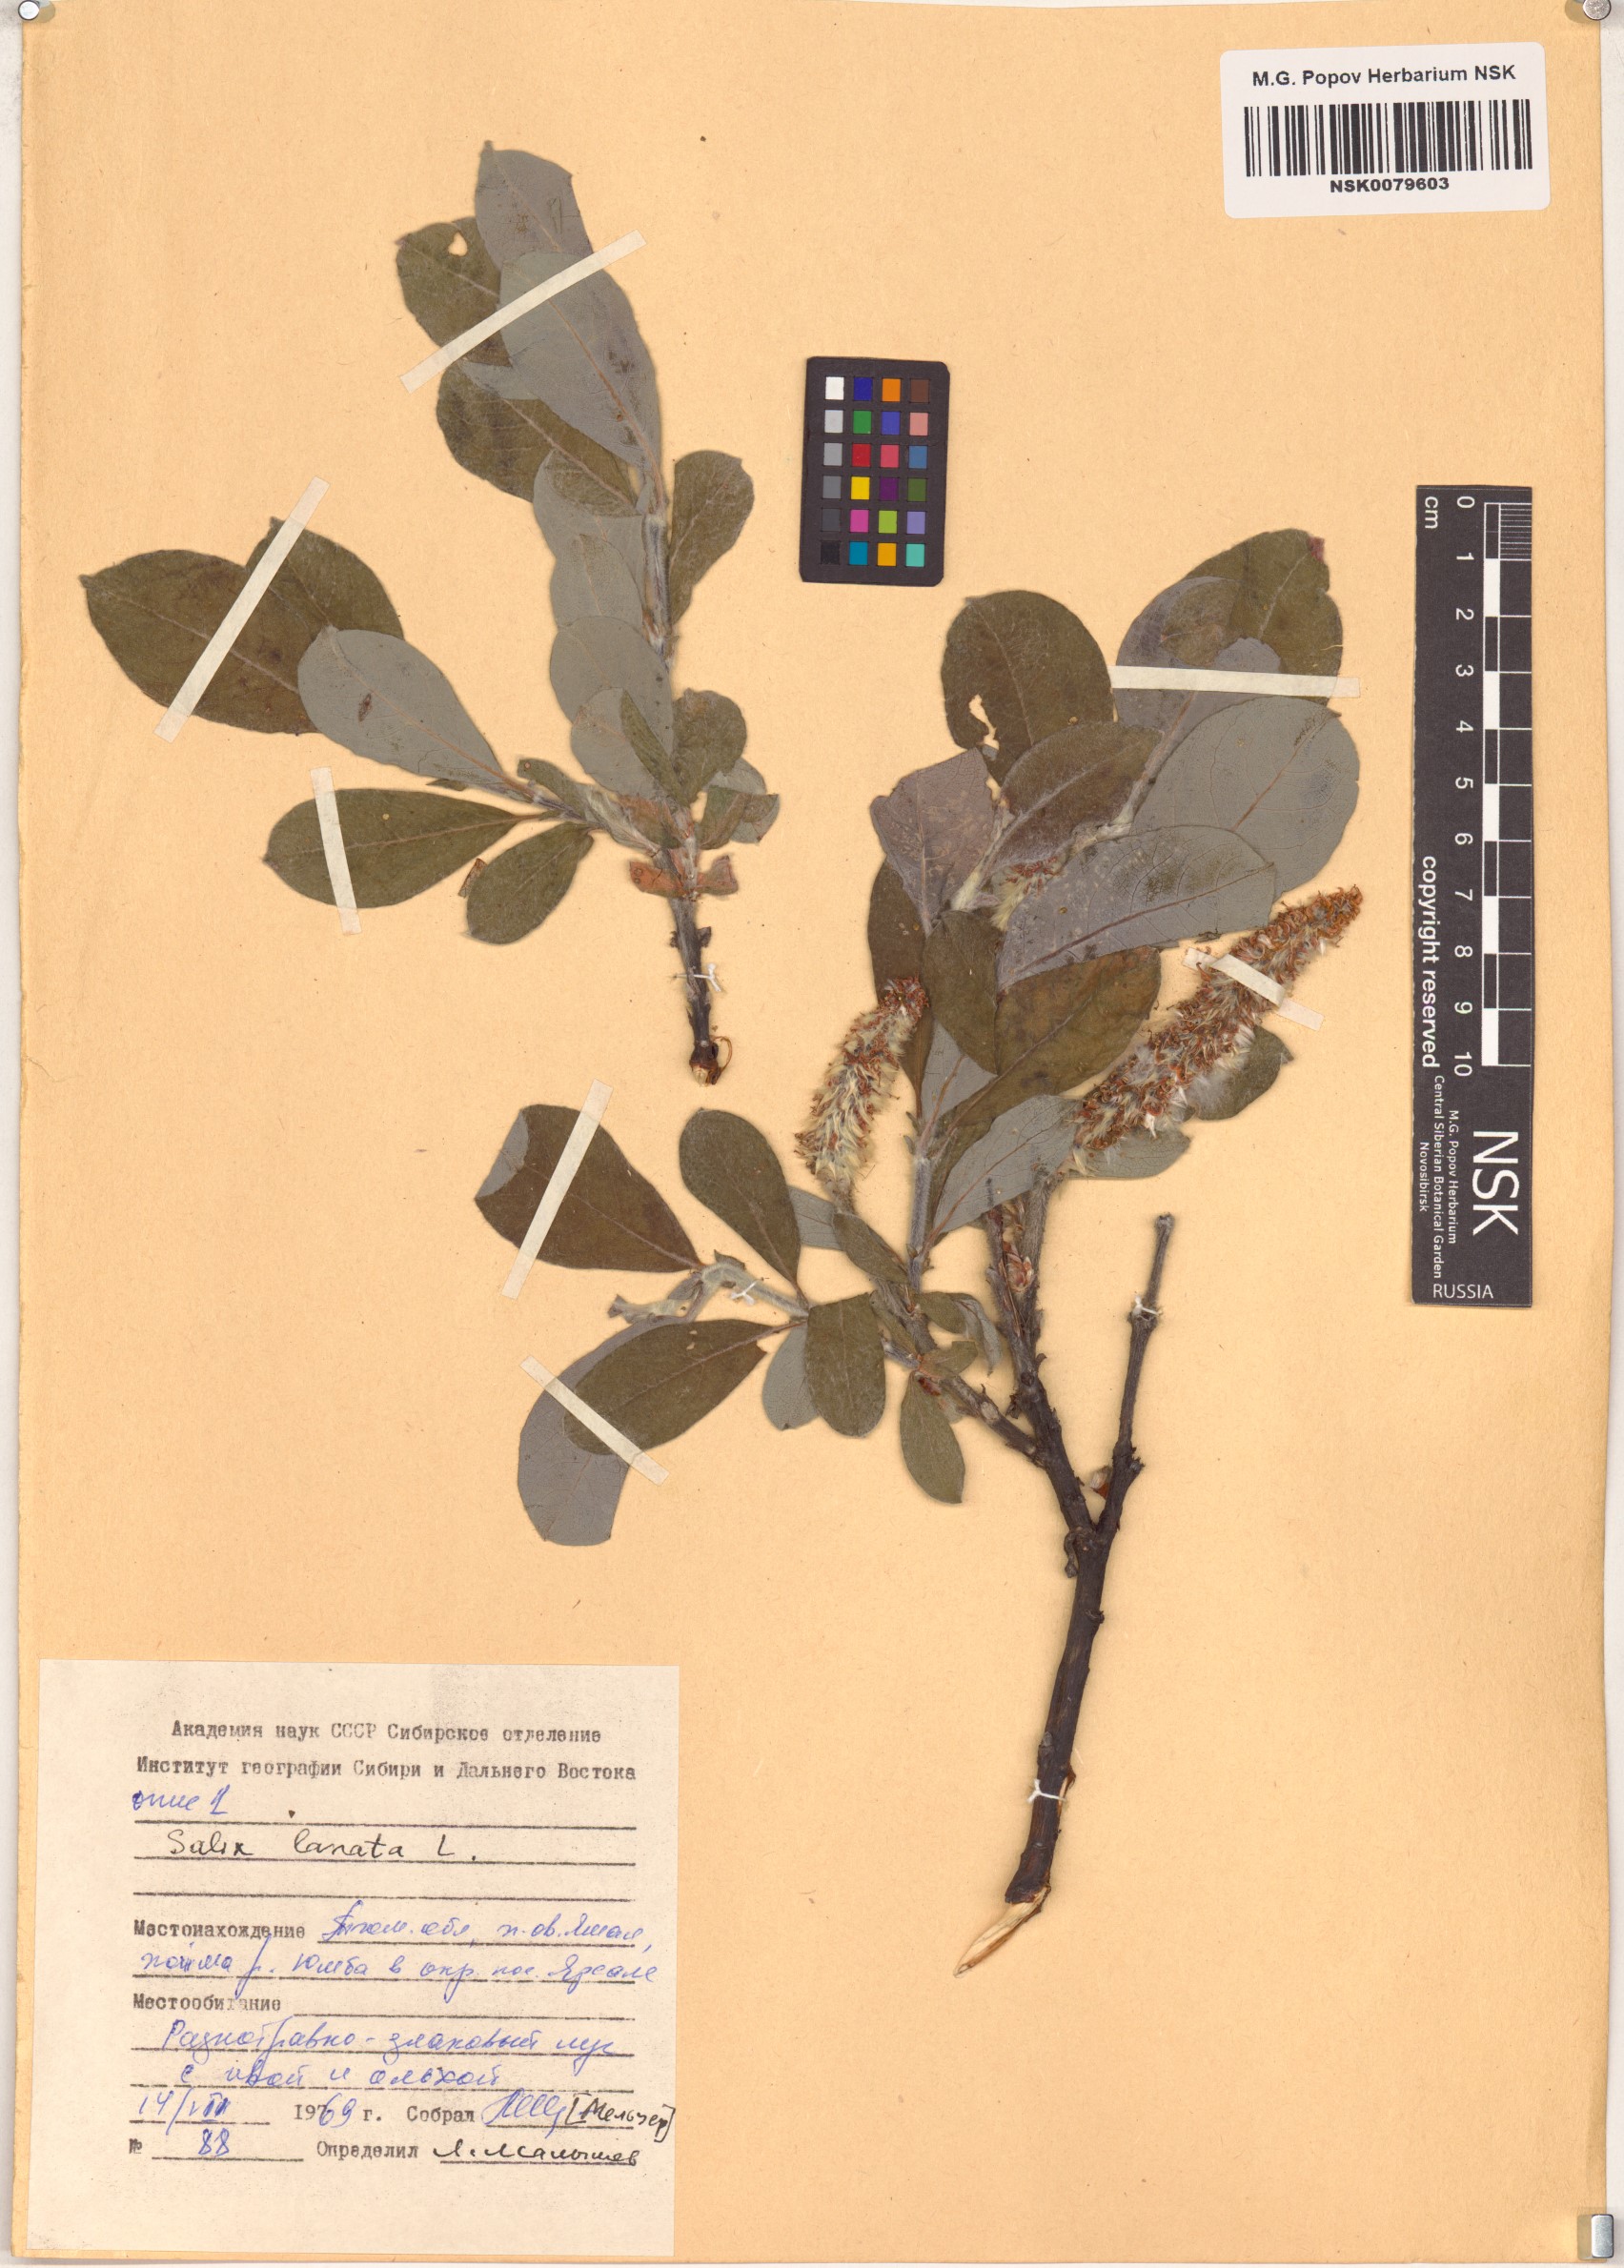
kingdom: Plantae
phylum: Tracheophyta
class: Magnoliopsida
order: Malpighiales
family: Salicaceae
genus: Salix
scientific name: Salix lanata
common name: Woolly willow
